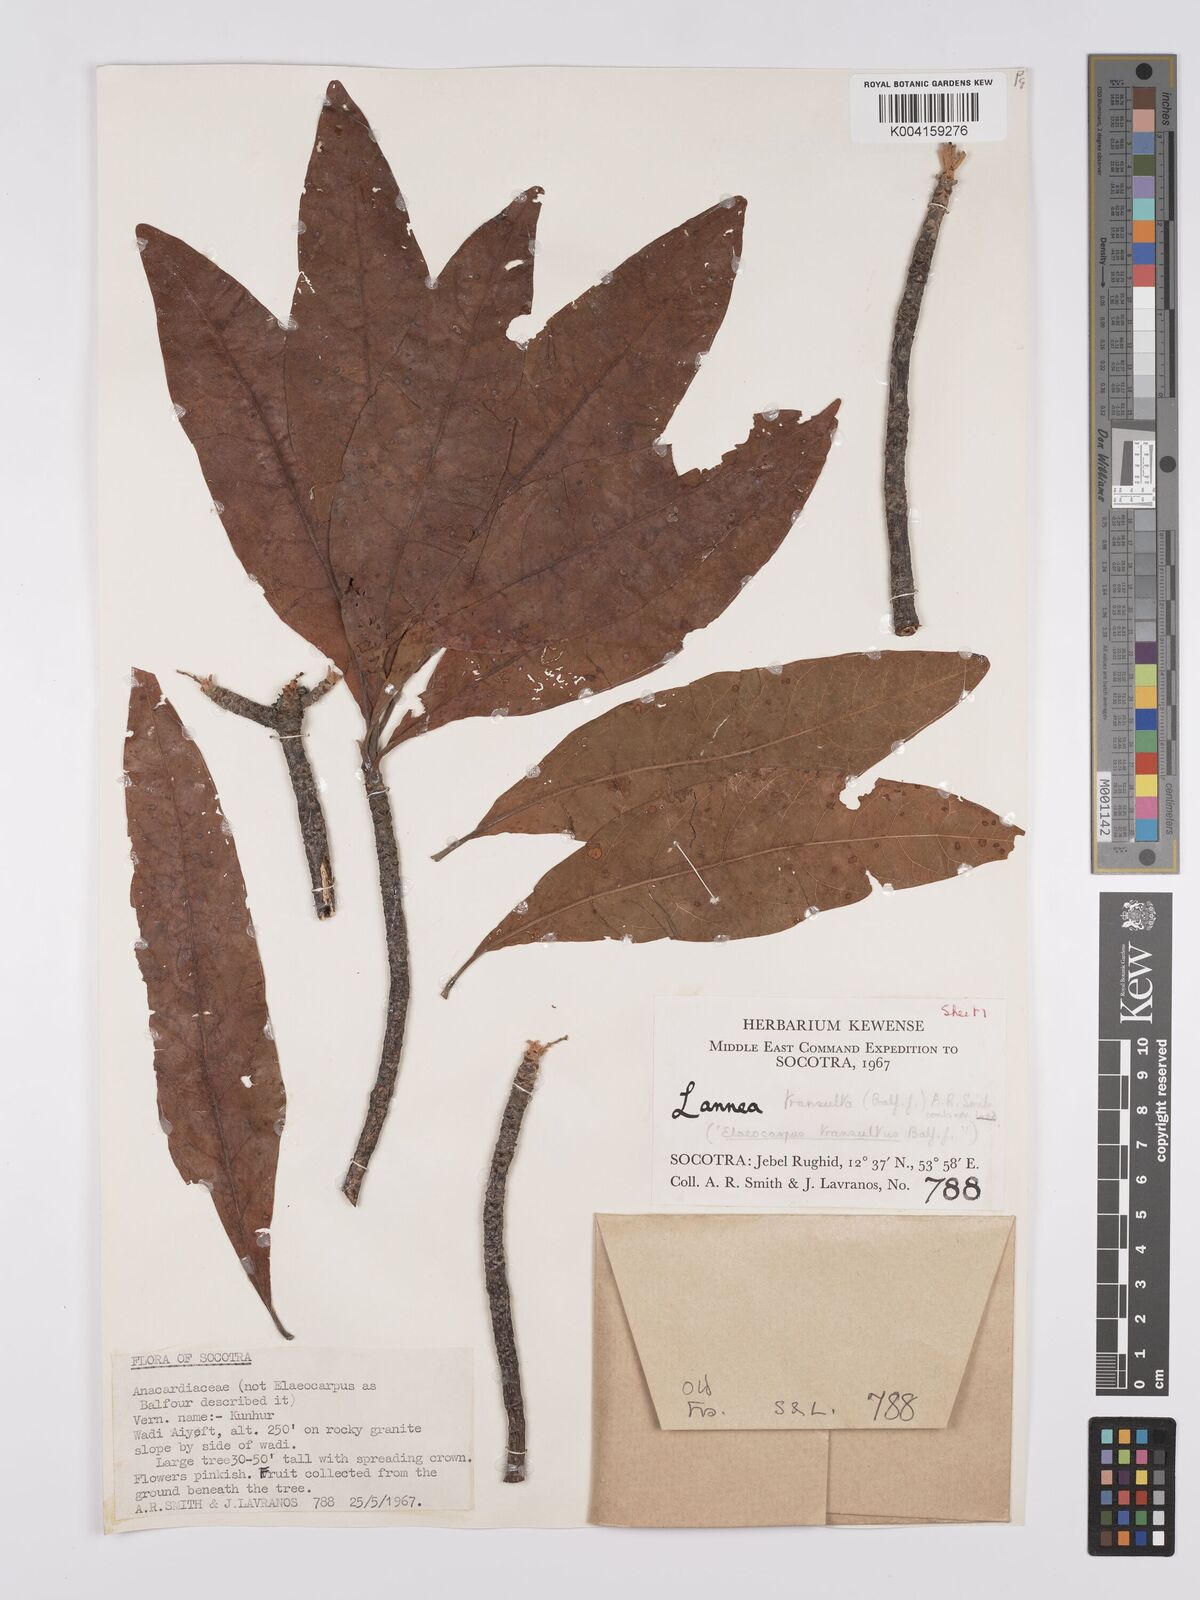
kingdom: Plantae
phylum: Tracheophyta
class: Magnoliopsida
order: Sapindales
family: Anacardiaceae
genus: Lannea
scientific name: Lannea transulta
